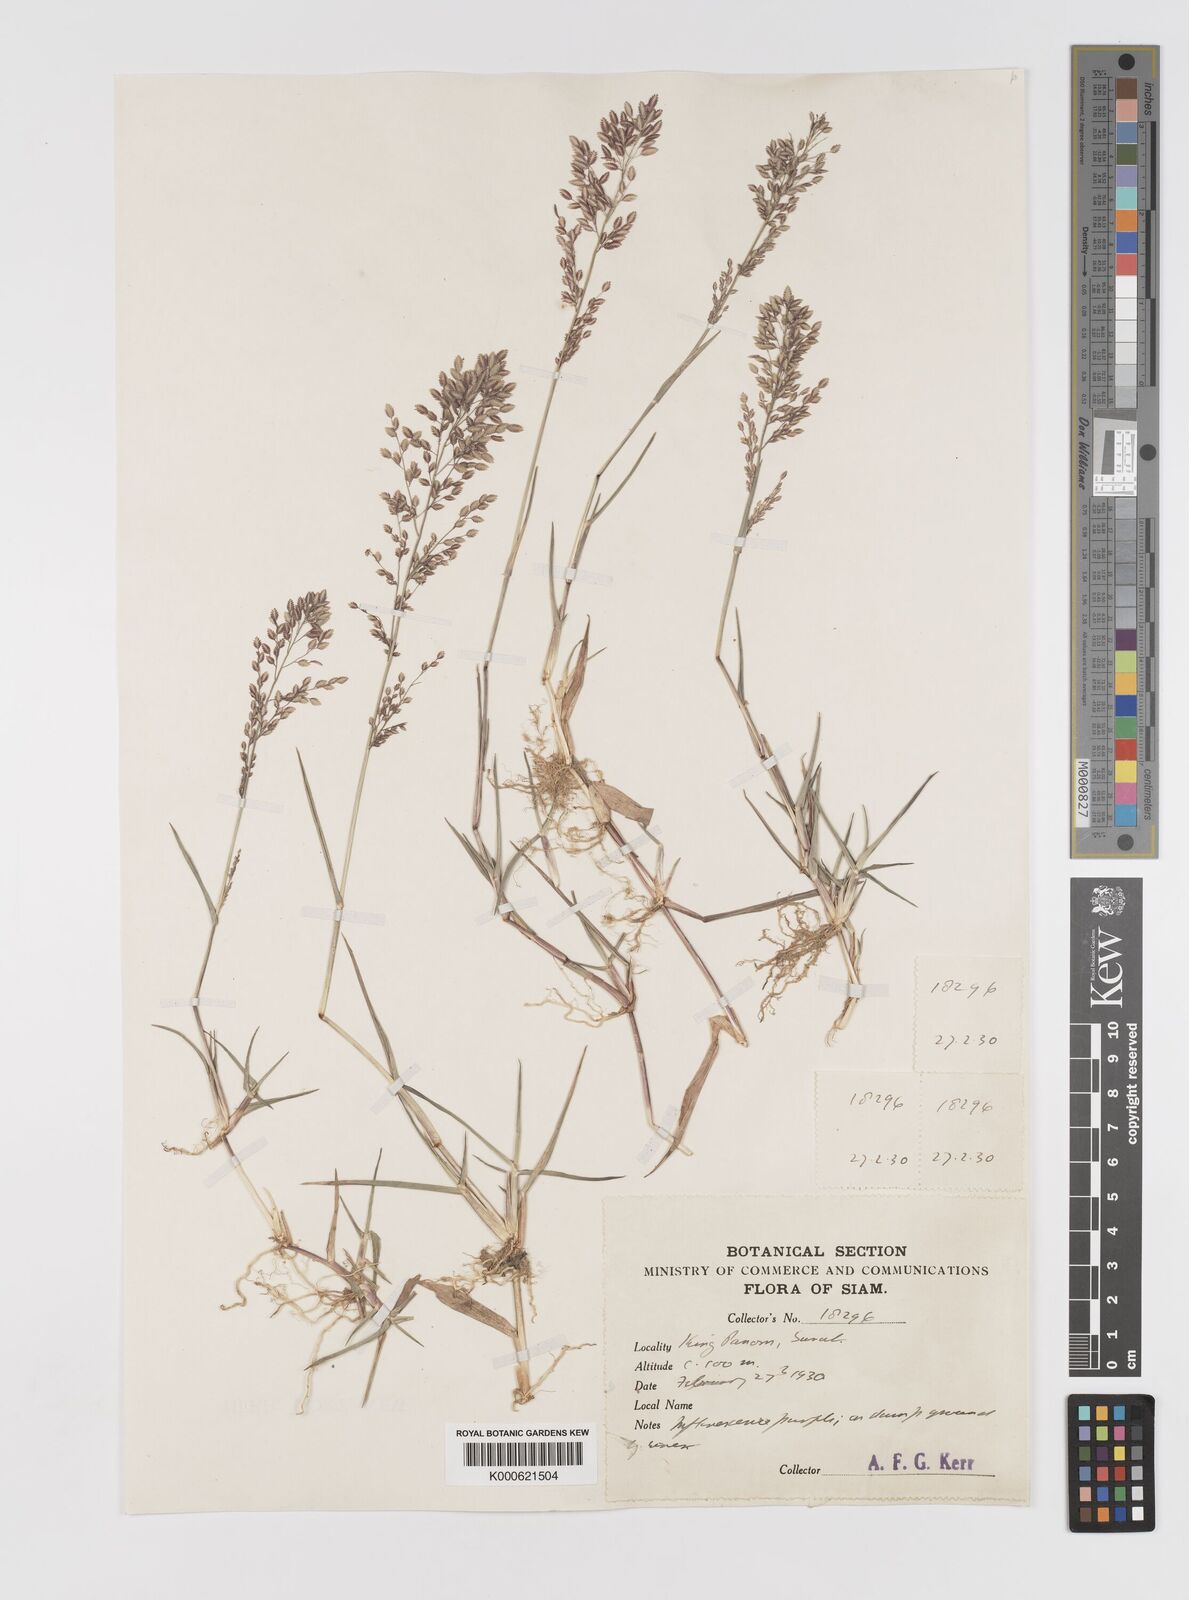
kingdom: Plantae
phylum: Tracheophyta
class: Liliopsida
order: Poales
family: Poaceae
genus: Eragrostis
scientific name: Eragrostis unioloides
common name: Chinese lovegrass
